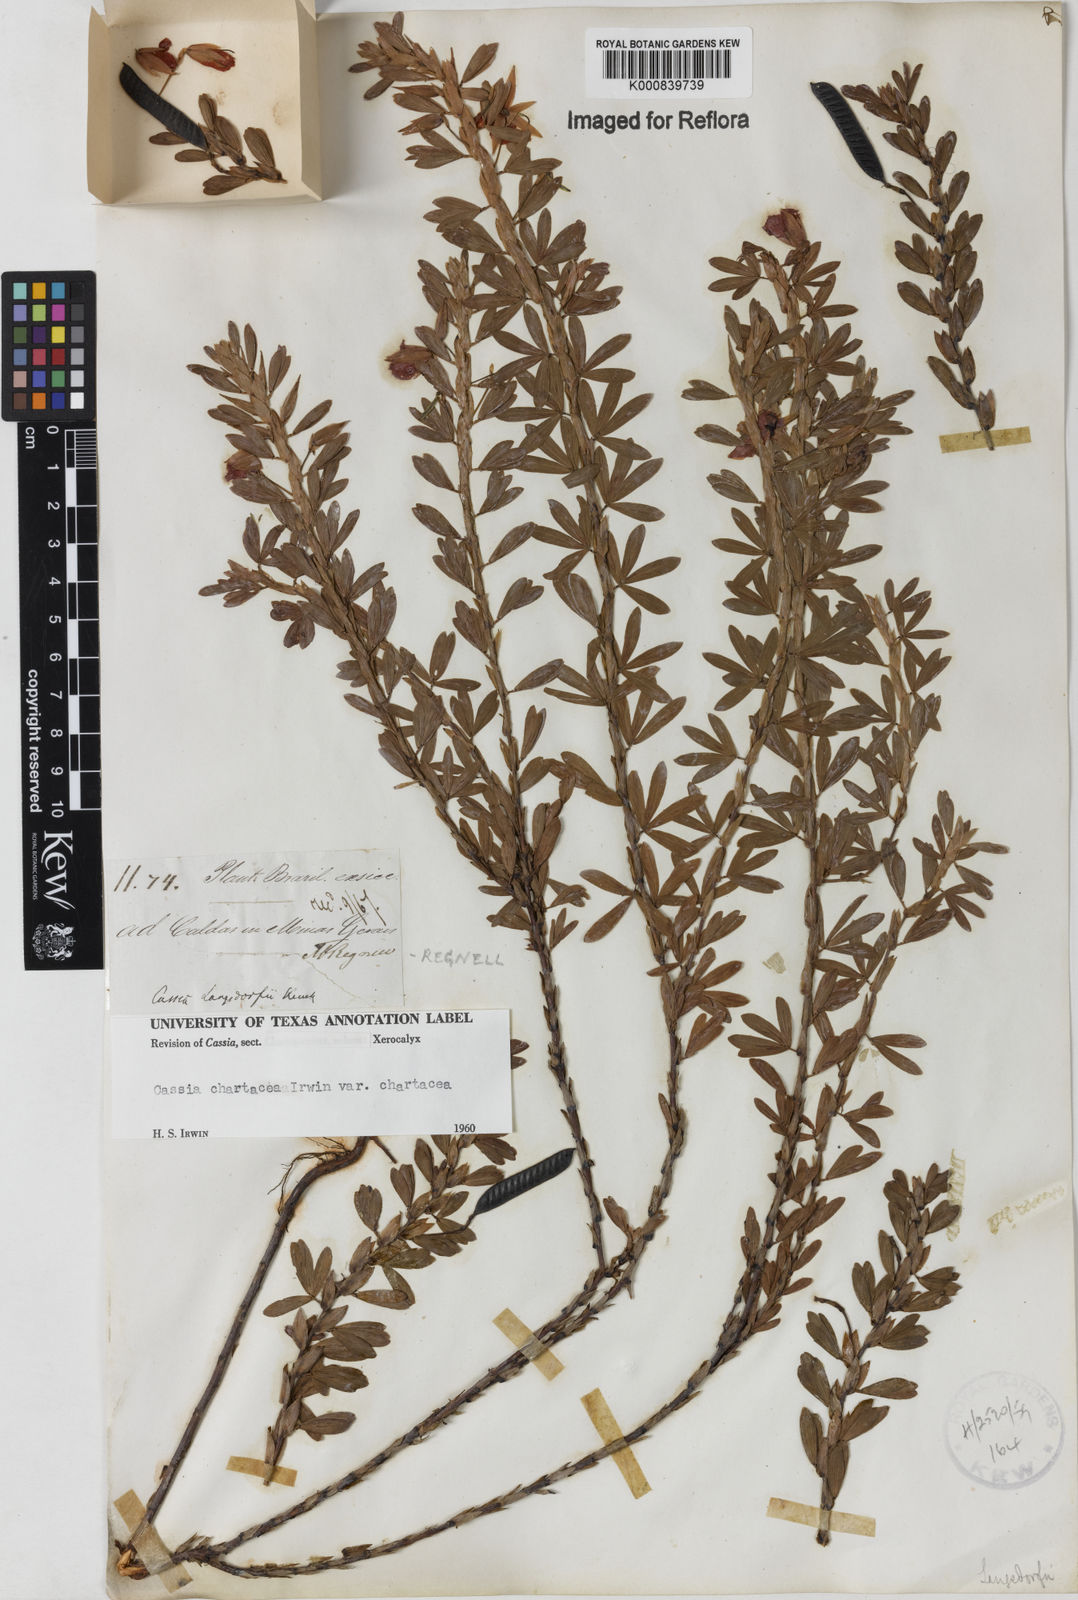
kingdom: Plantae
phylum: Tracheophyta
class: Magnoliopsida
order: Fabales
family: Fabaceae
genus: Chamaecrista
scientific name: Chamaecrista langsdorffii
